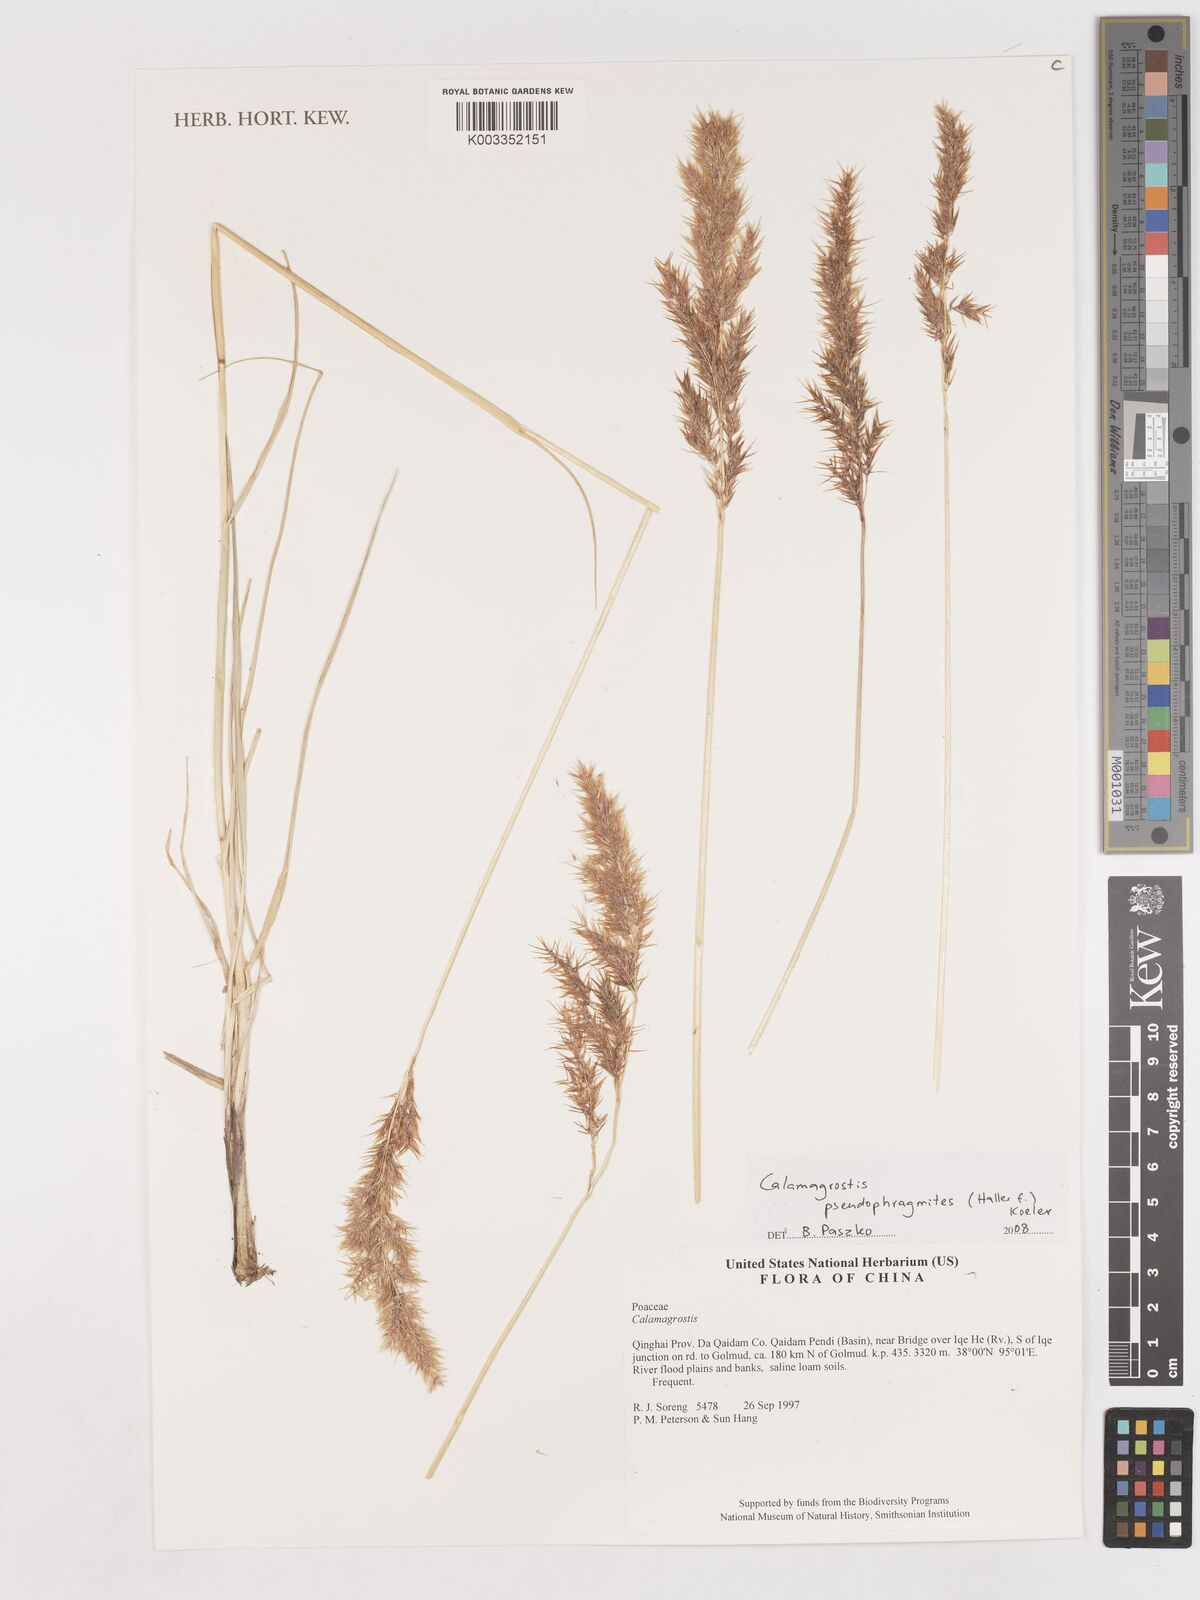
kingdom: Plantae
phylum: Tracheophyta
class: Liliopsida
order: Poales
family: Poaceae
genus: Calamagrostis
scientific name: Calamagrostis pseudophragmites
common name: Coastal small-reed
